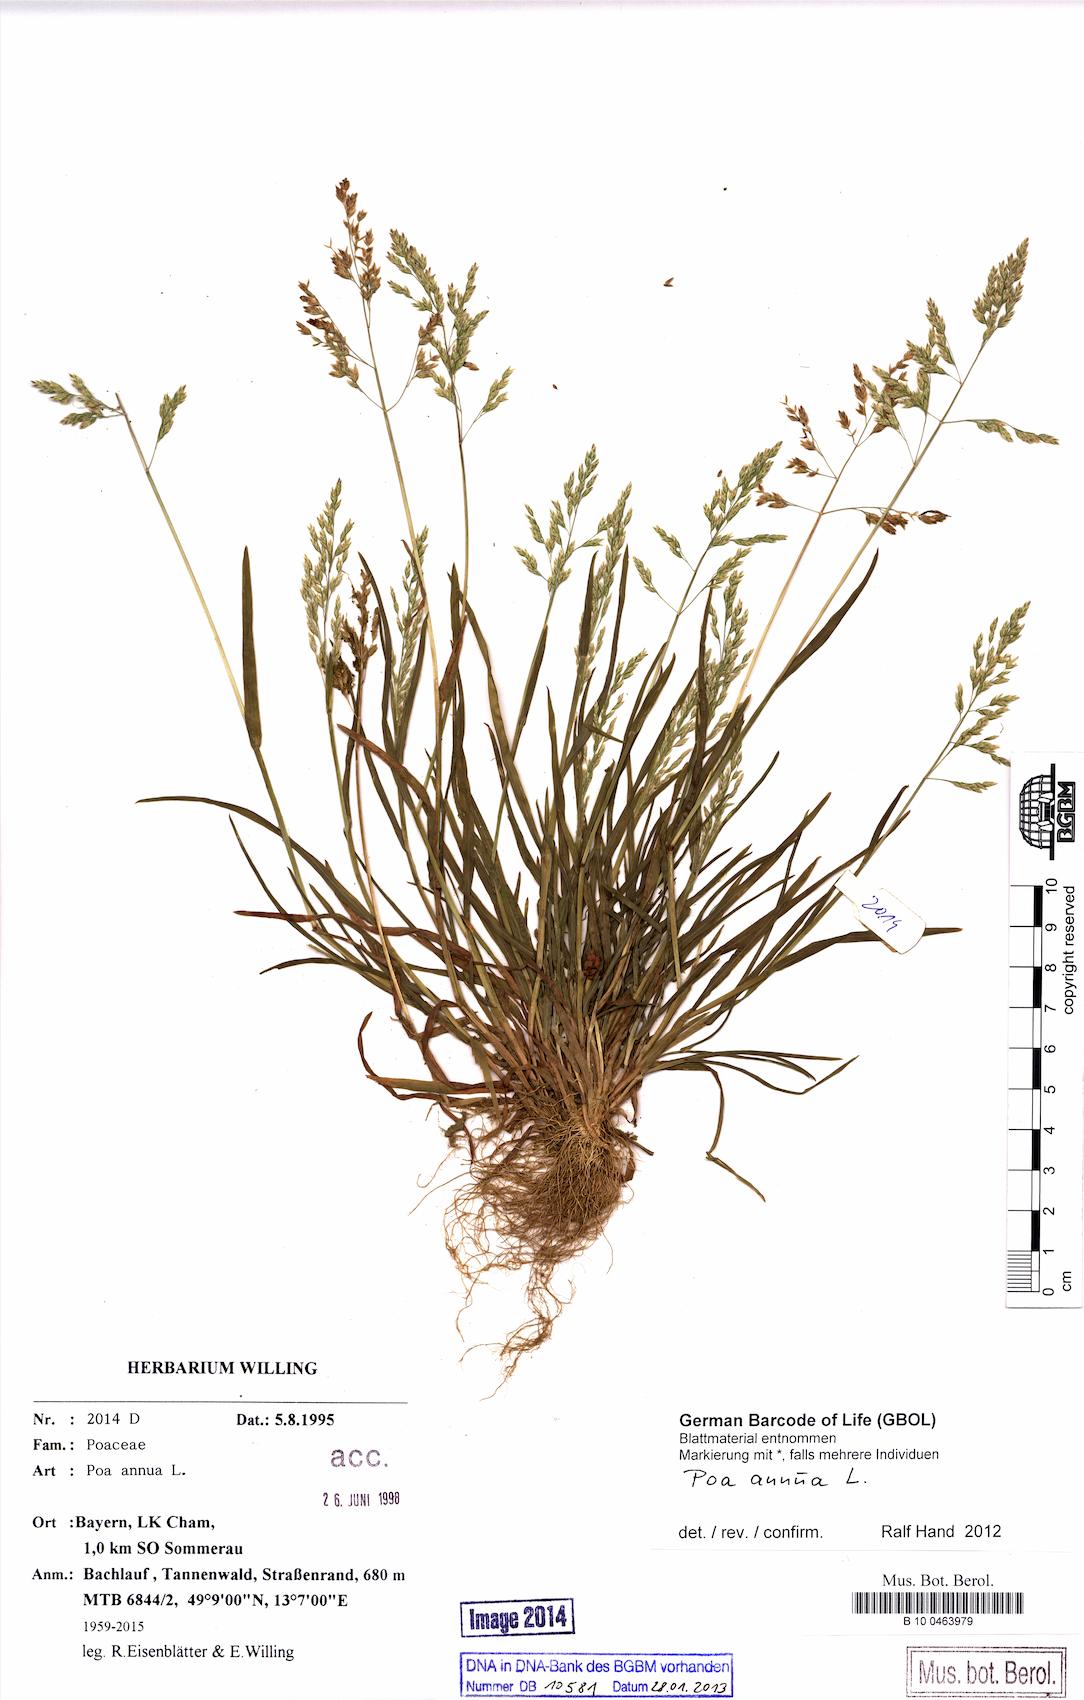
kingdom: Plantae
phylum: Tracheophyta
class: Liliopsida
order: Poales
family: Poaceae
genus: Poa
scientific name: Poa annua
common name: Annual bluegrass
